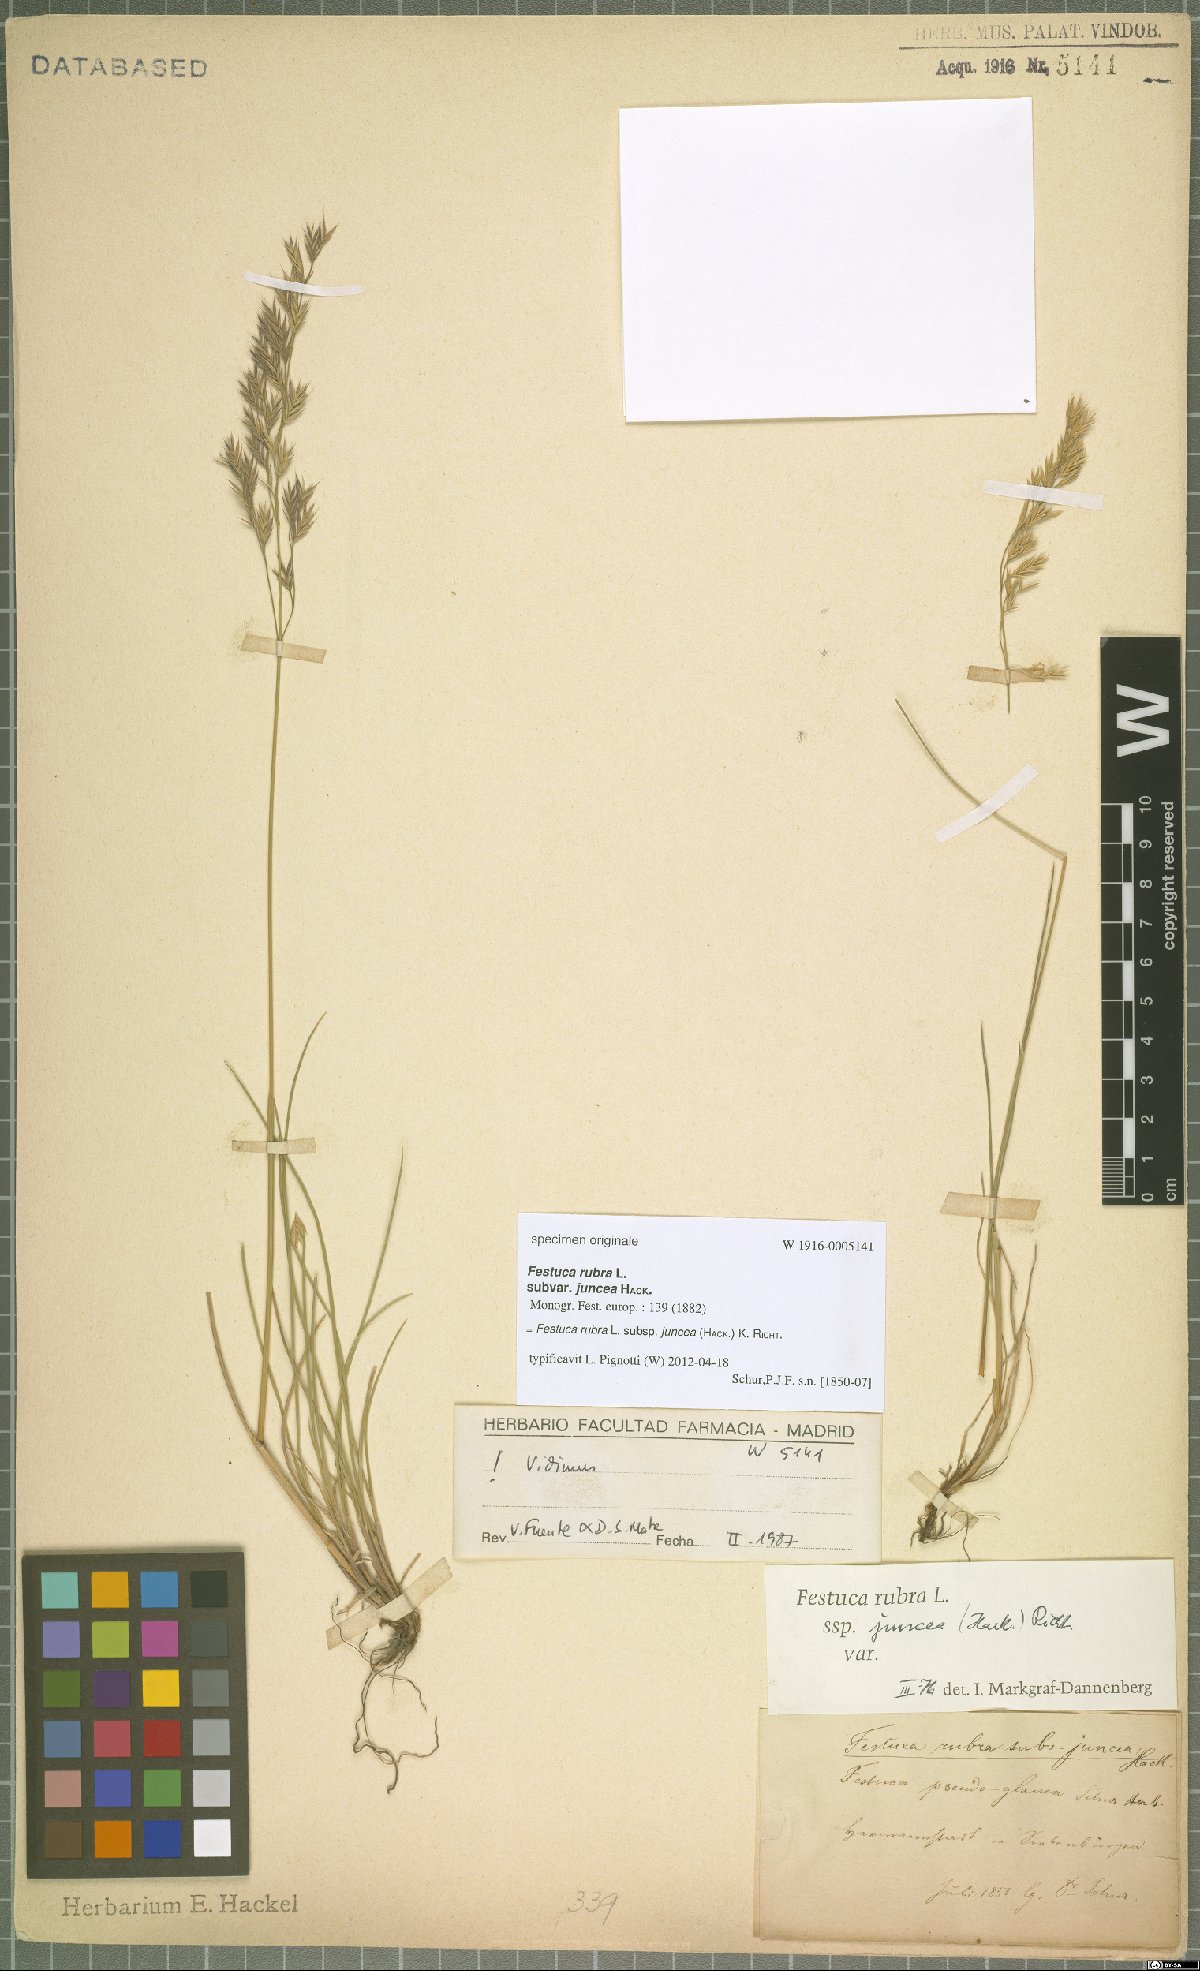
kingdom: Plantae
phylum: Tracheophyta
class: Liliopsida
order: Poales
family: Poaceae
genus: Festuca
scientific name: Festuca rubra
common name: Red fescue
